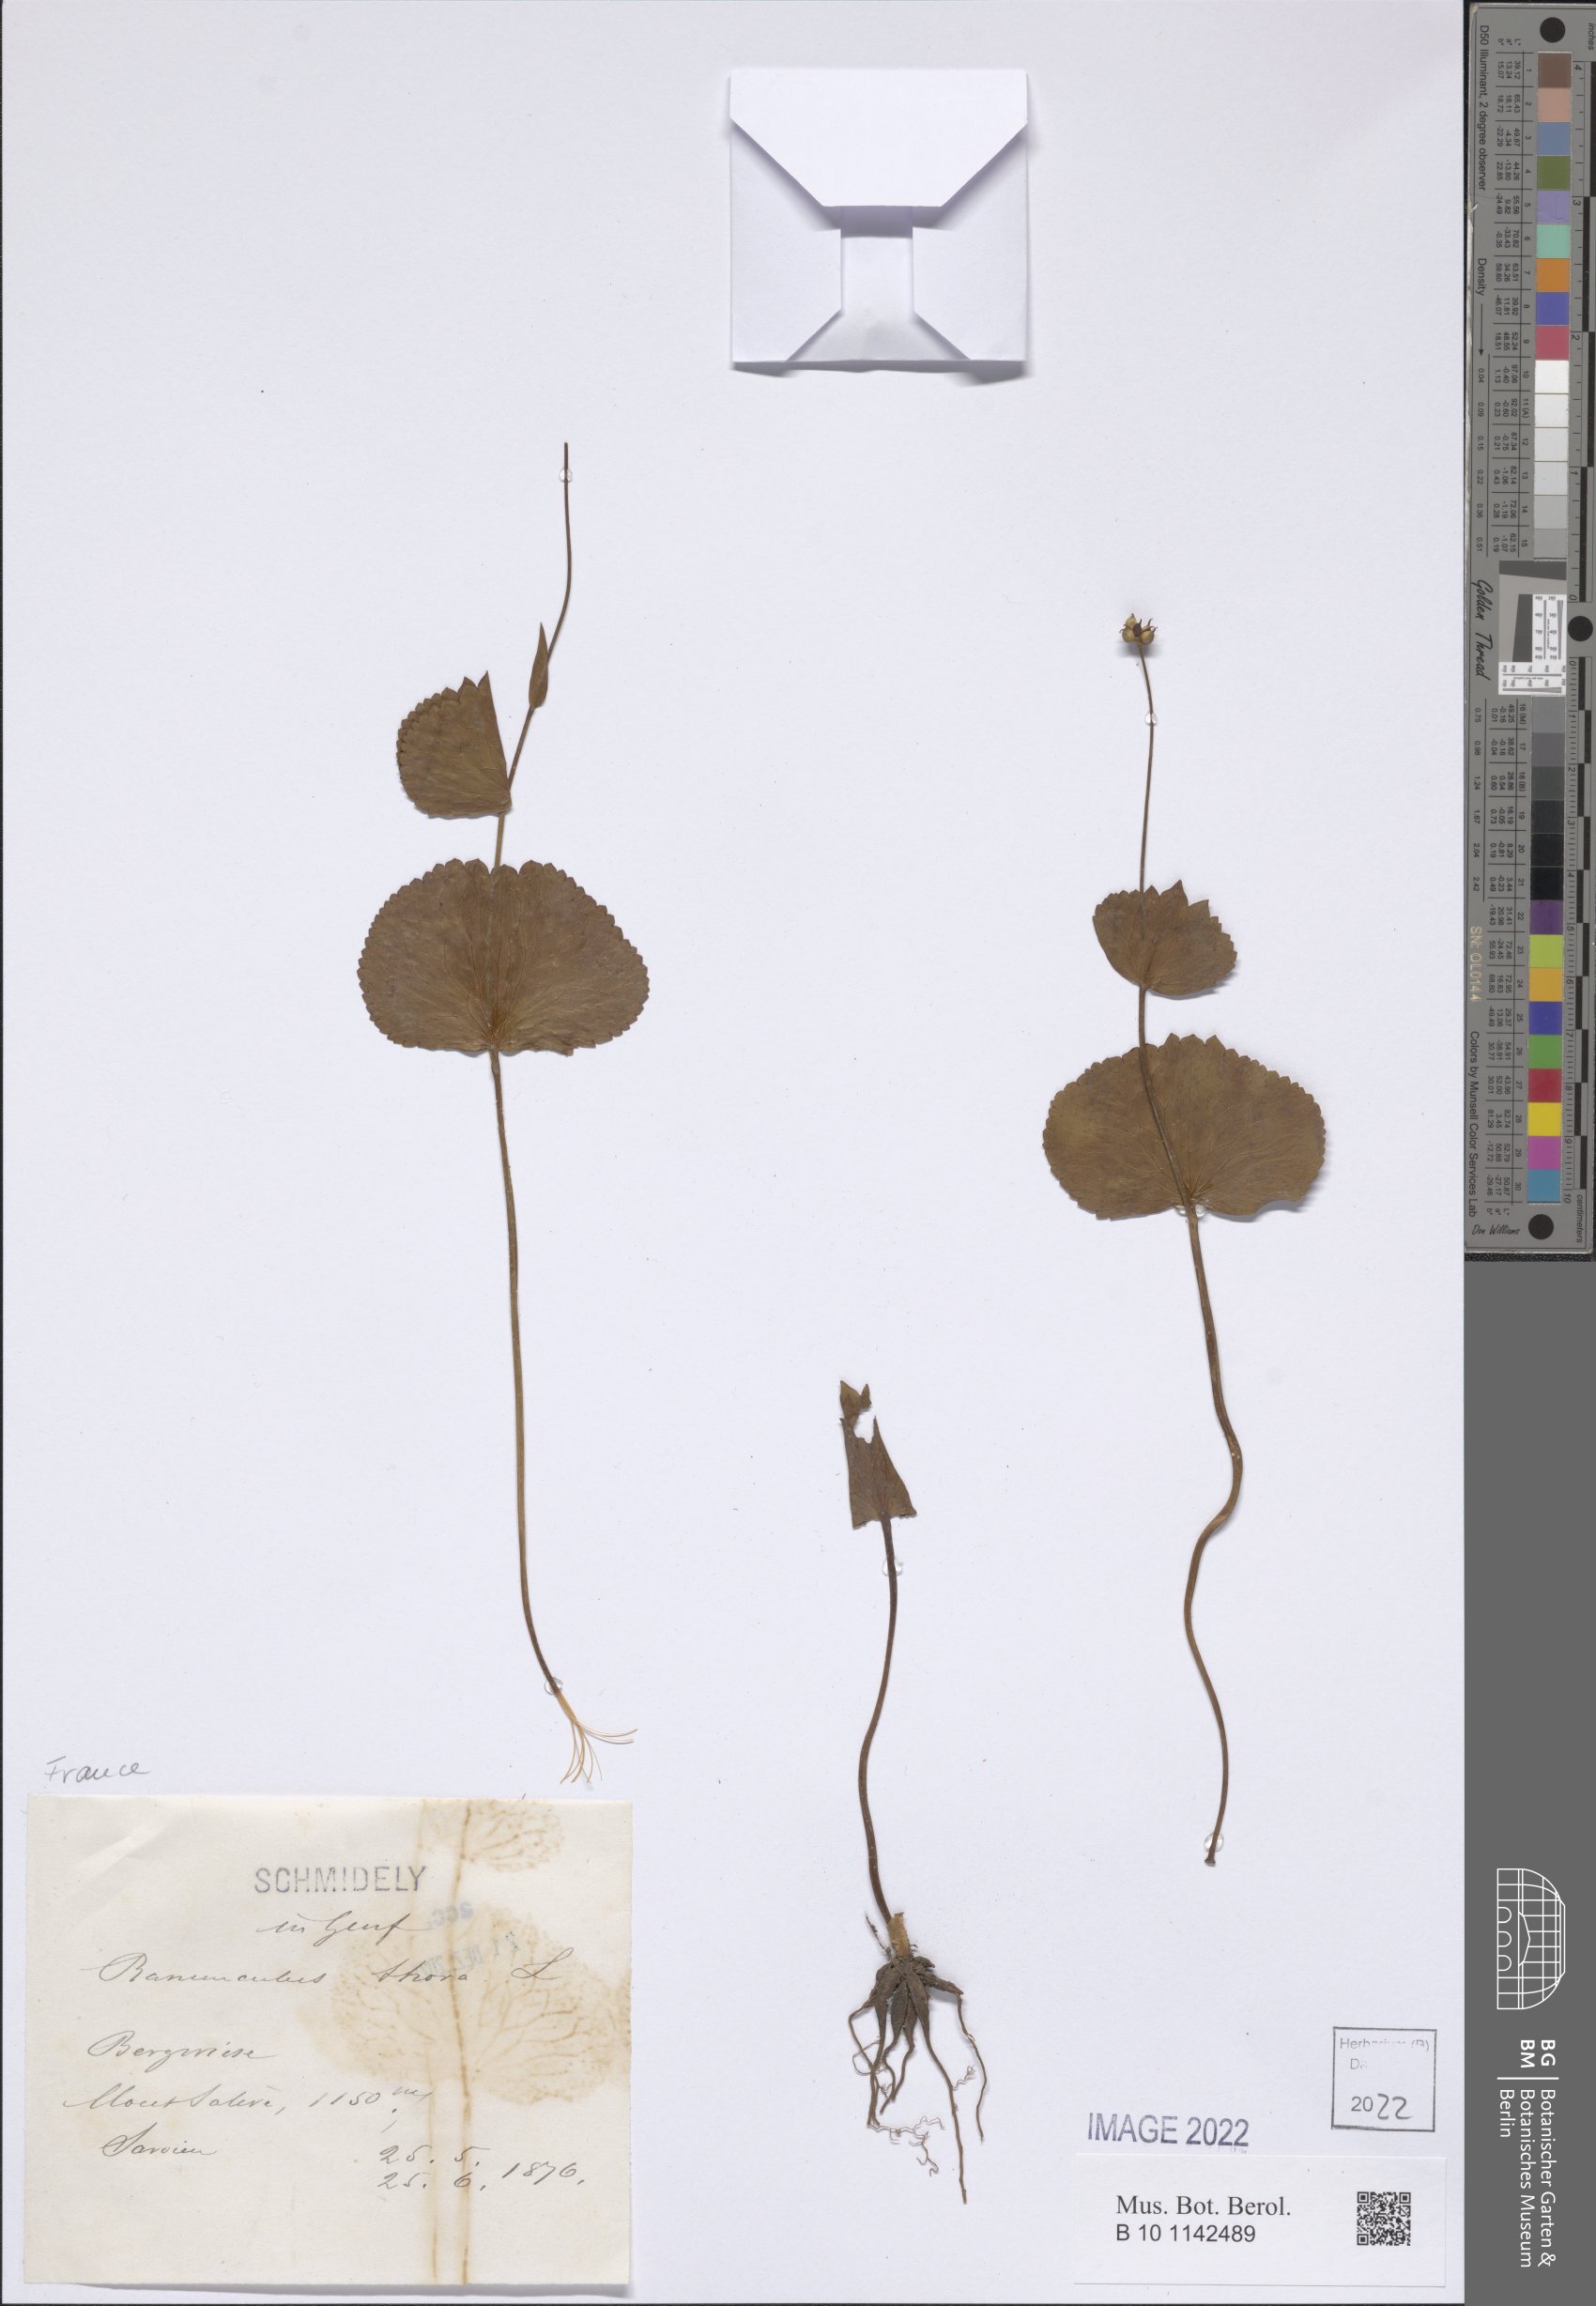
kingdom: Plantae
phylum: Tracheophyta
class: Magnoliopsida
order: Ranunculales
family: Ranunculaceae
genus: Ranunculus
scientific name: Ranunculus thora
